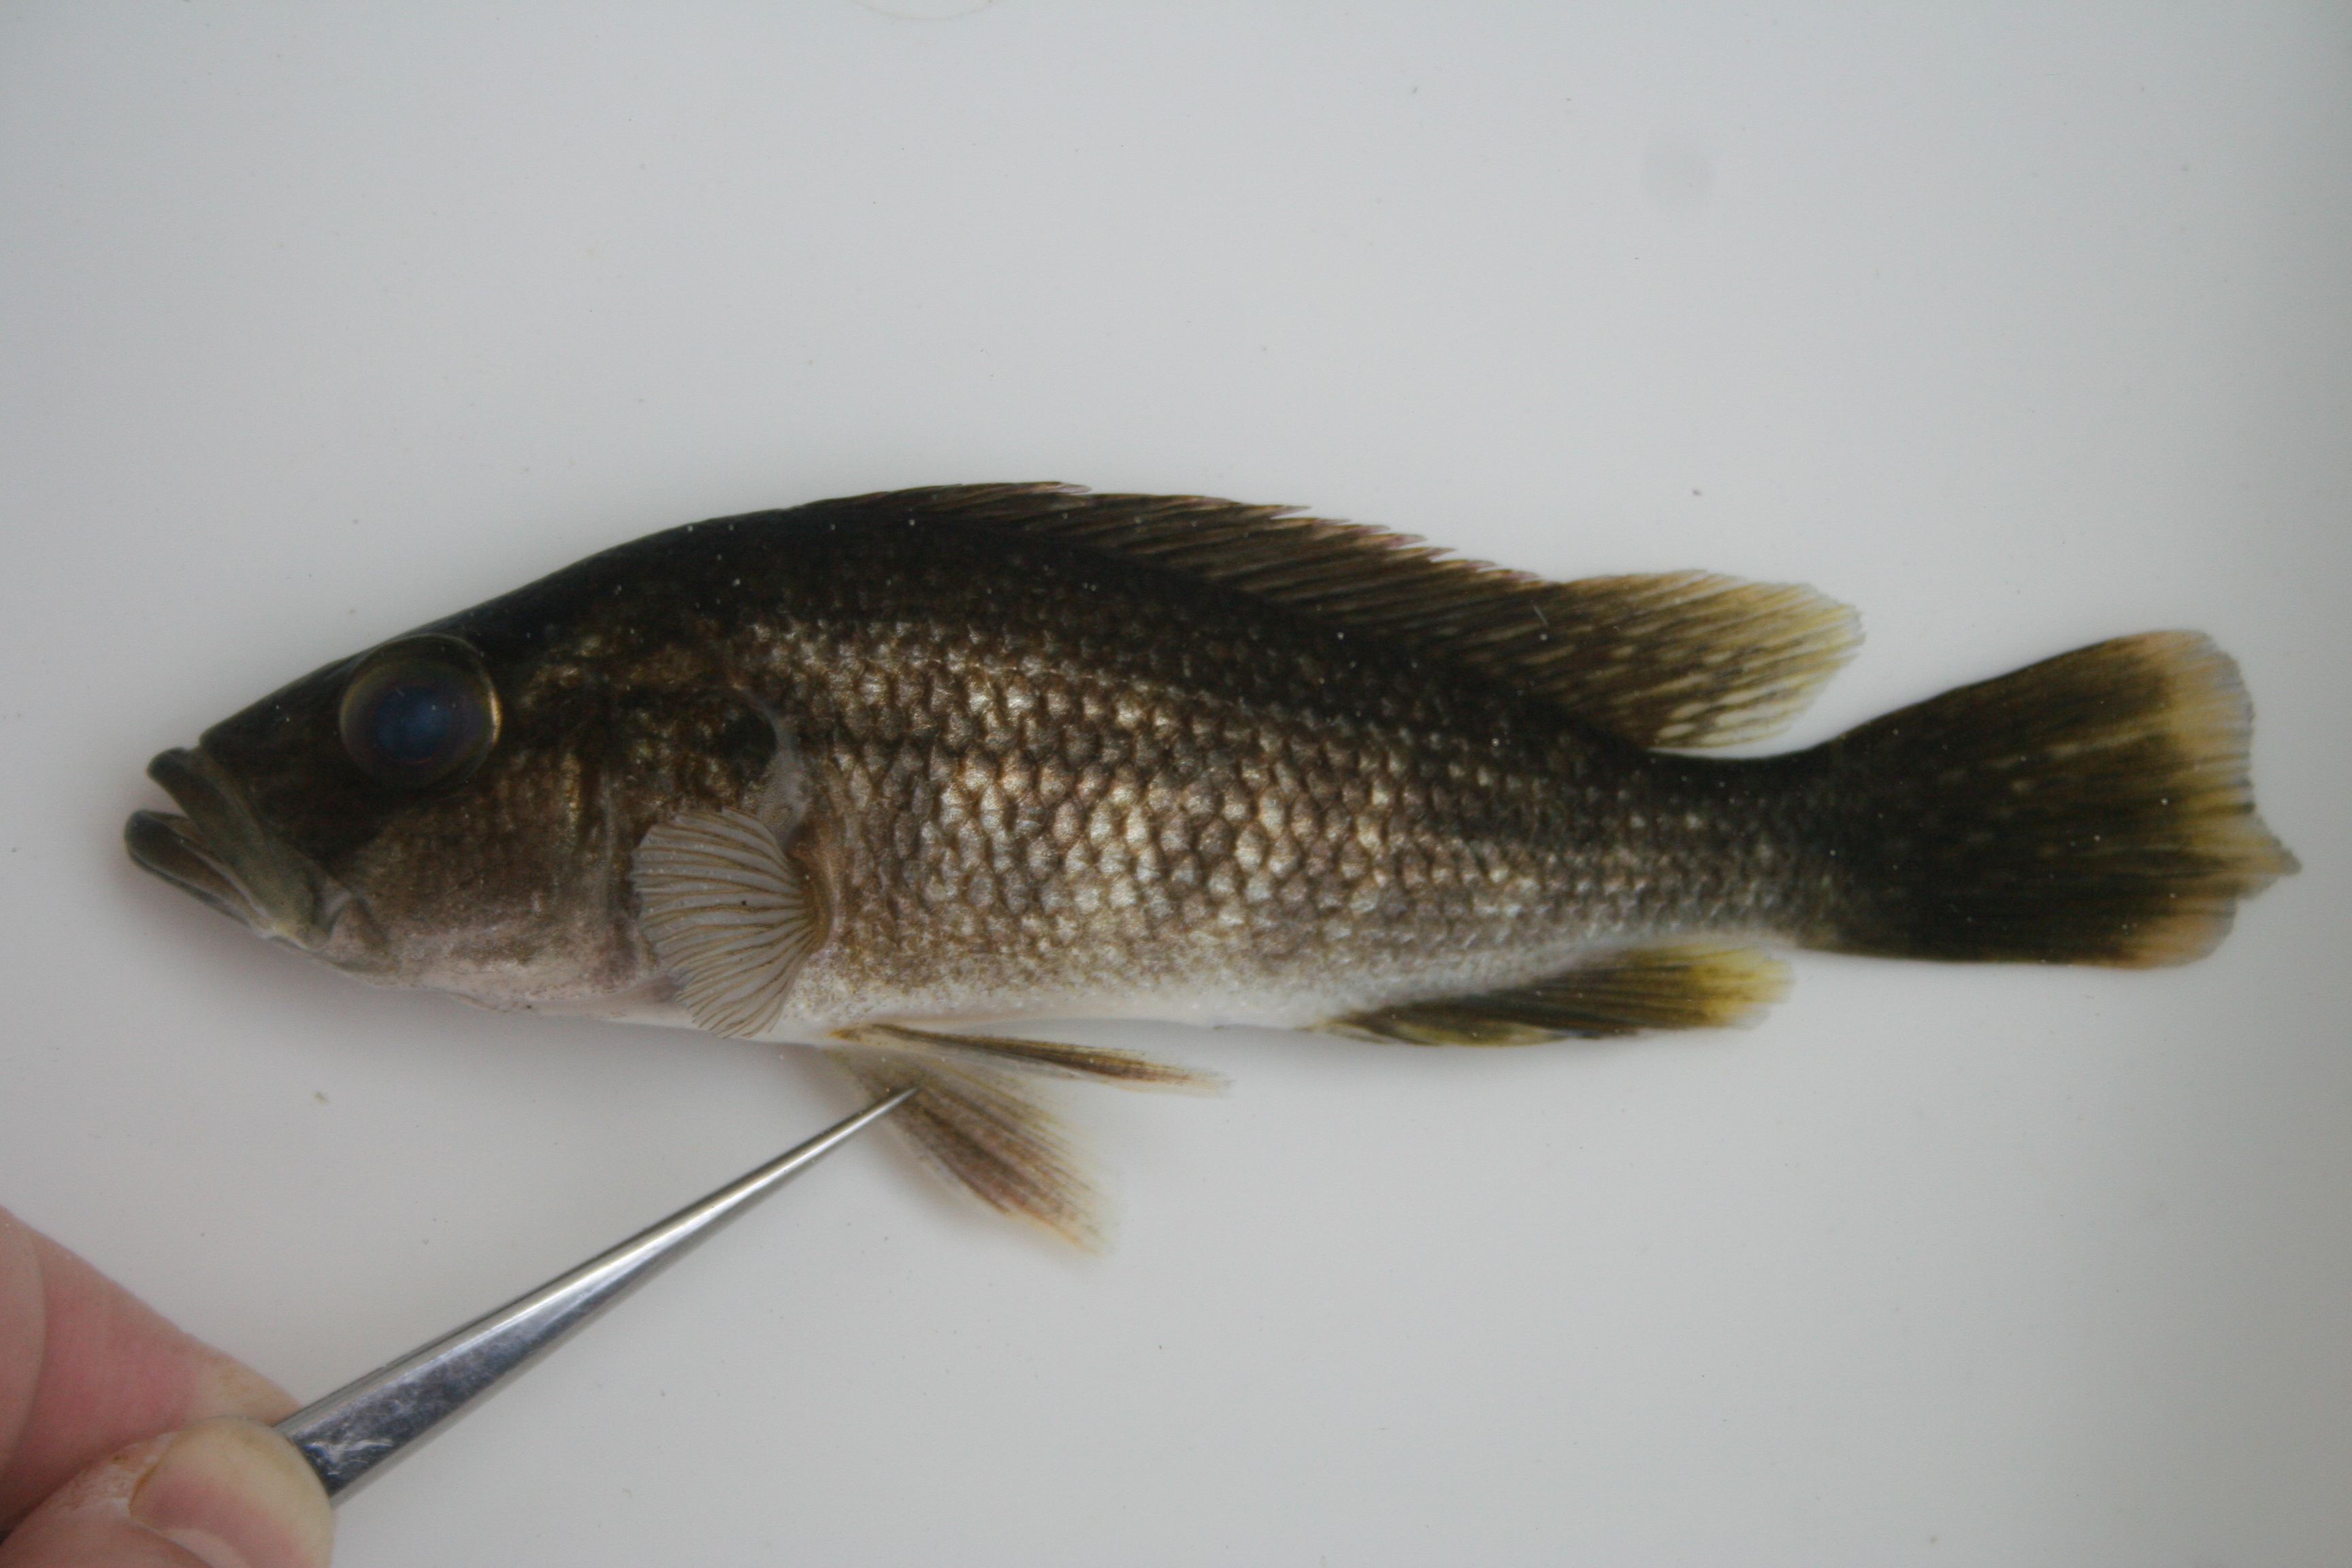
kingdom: Animalia
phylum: Chordata
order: Perciformes
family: Cichlidae
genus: Serranochromis
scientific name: Serranochromis
